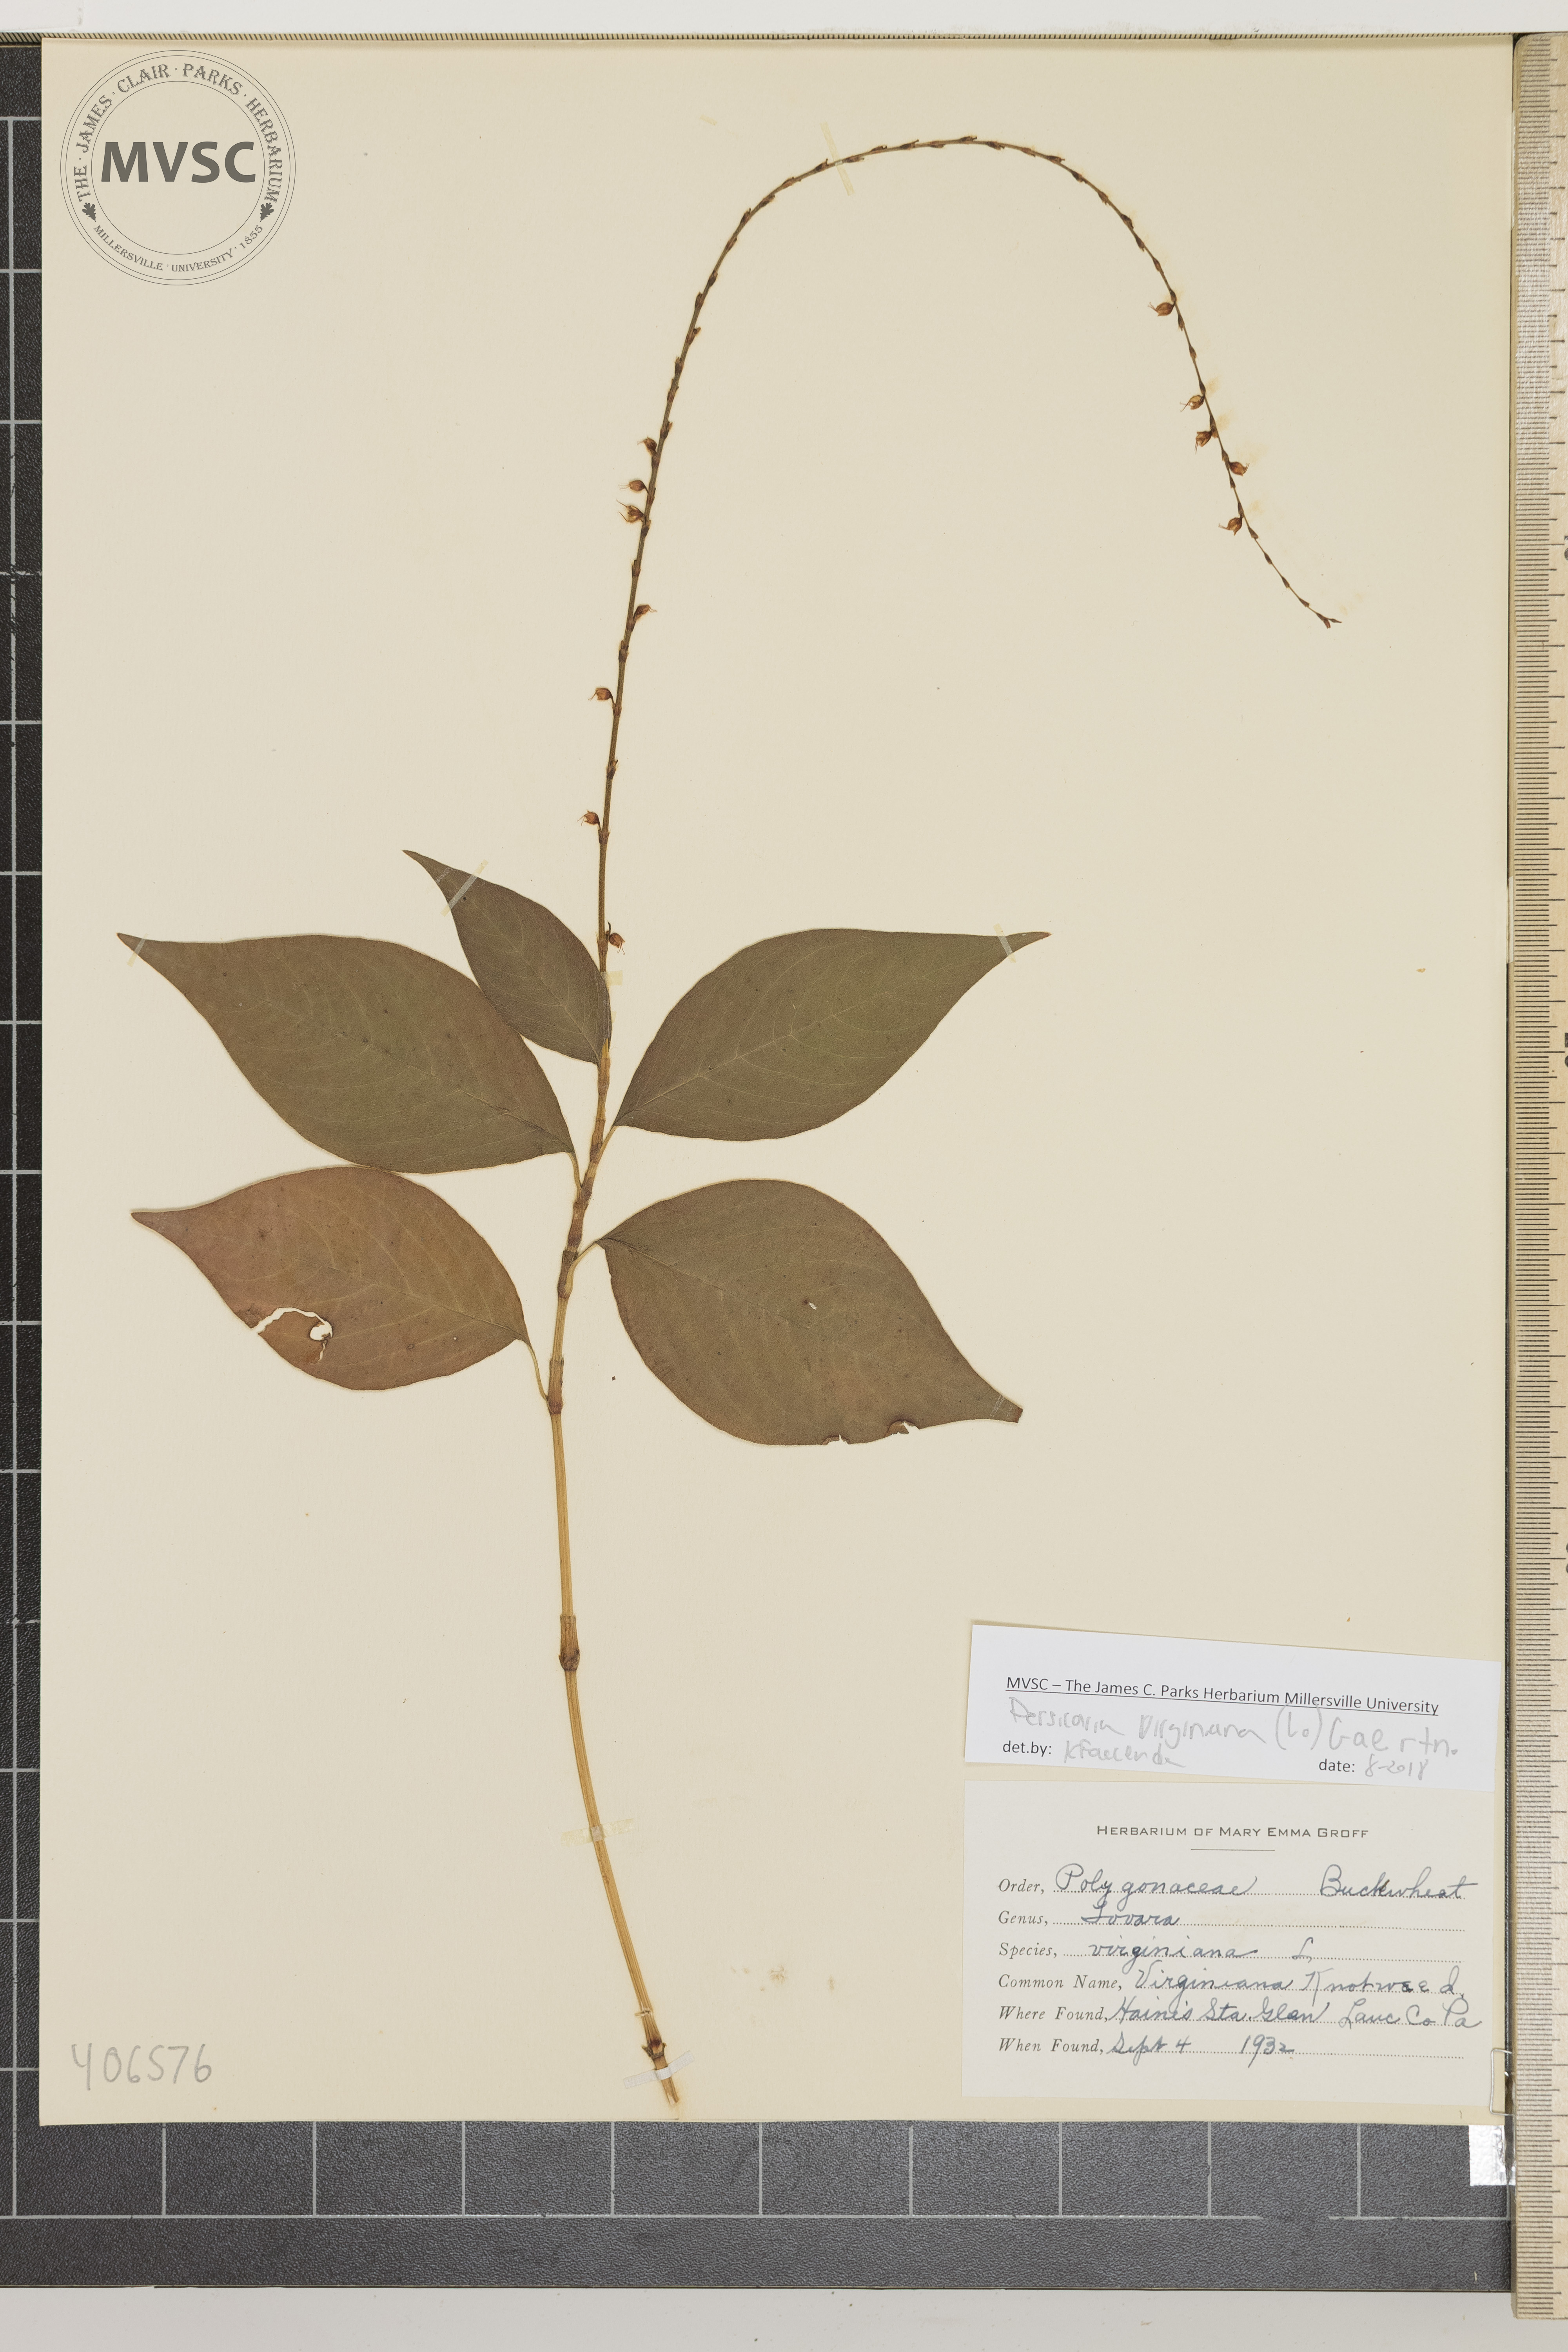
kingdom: Plantae
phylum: Tracheophyta
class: Magnoliopsida
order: Caryophyllales
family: Polygonaceae
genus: Persicaria
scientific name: Persicaria virginiana
